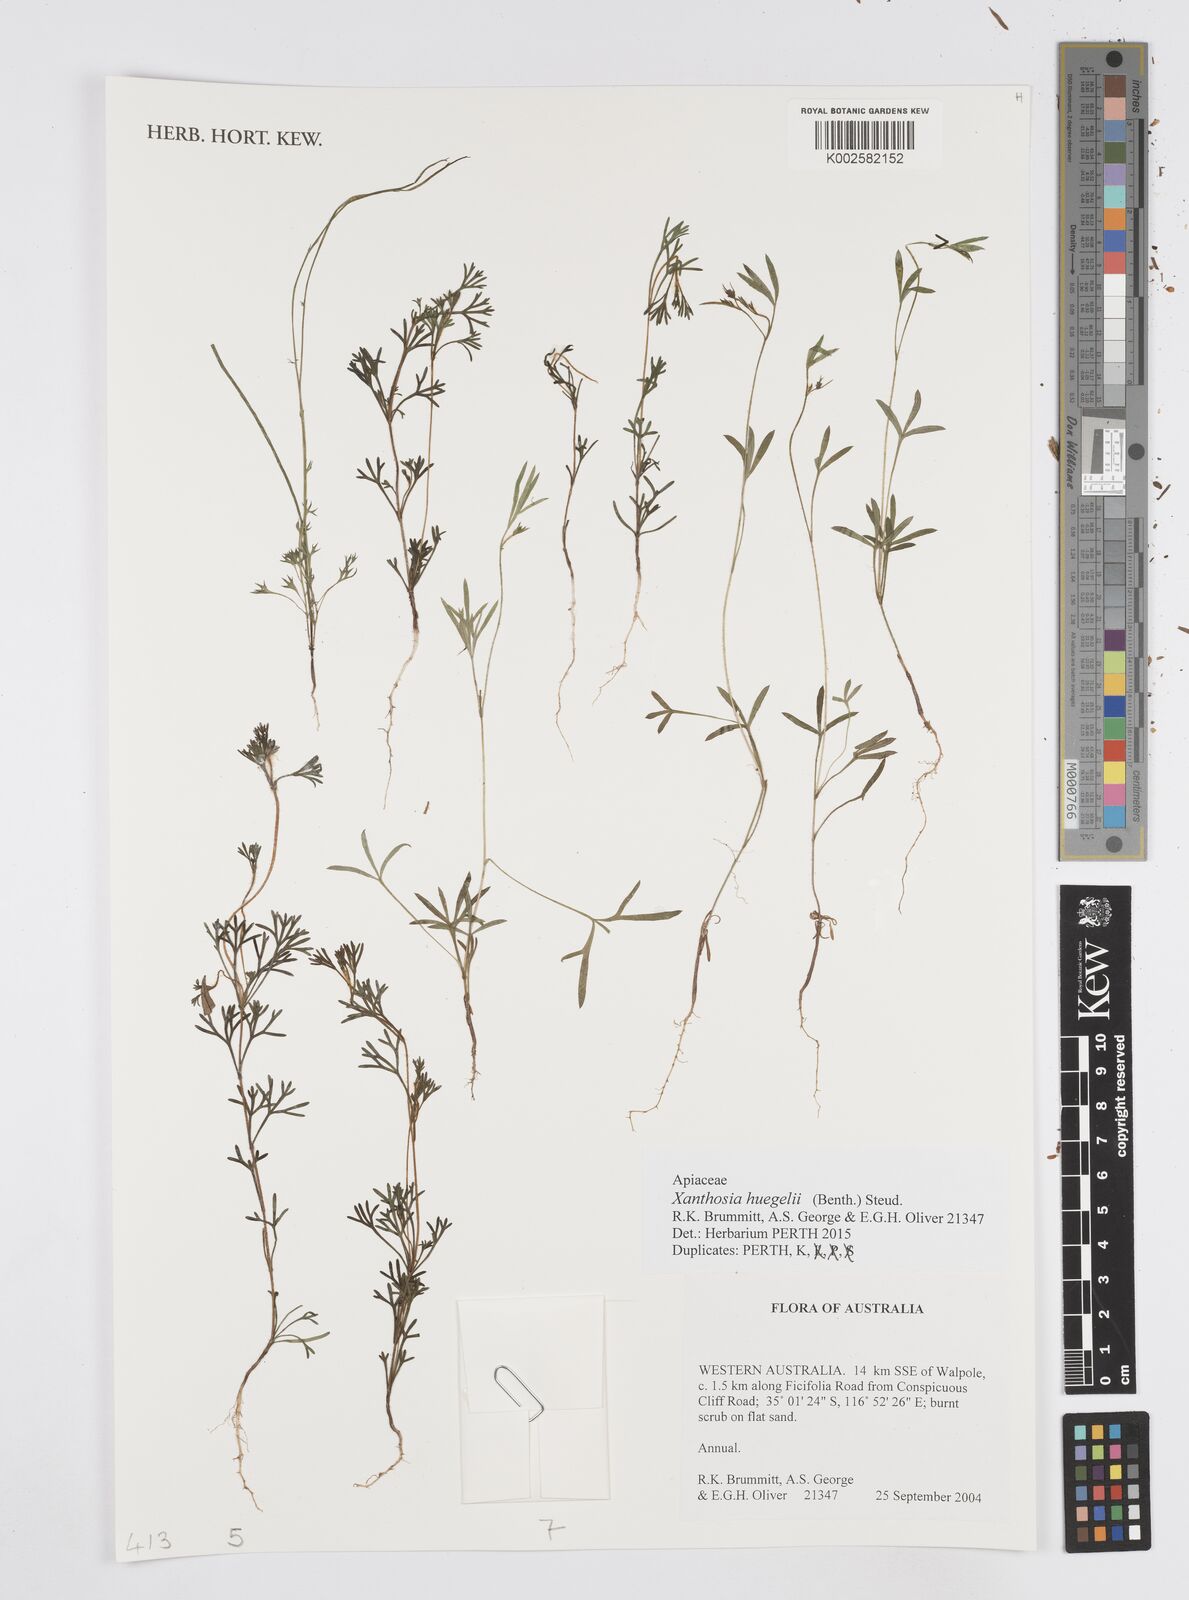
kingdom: Plantae
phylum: Tracheophyta
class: Magnoliopsida
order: Apiales
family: Apiaceae
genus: Xanthosia
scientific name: Xanthosia huegelii
